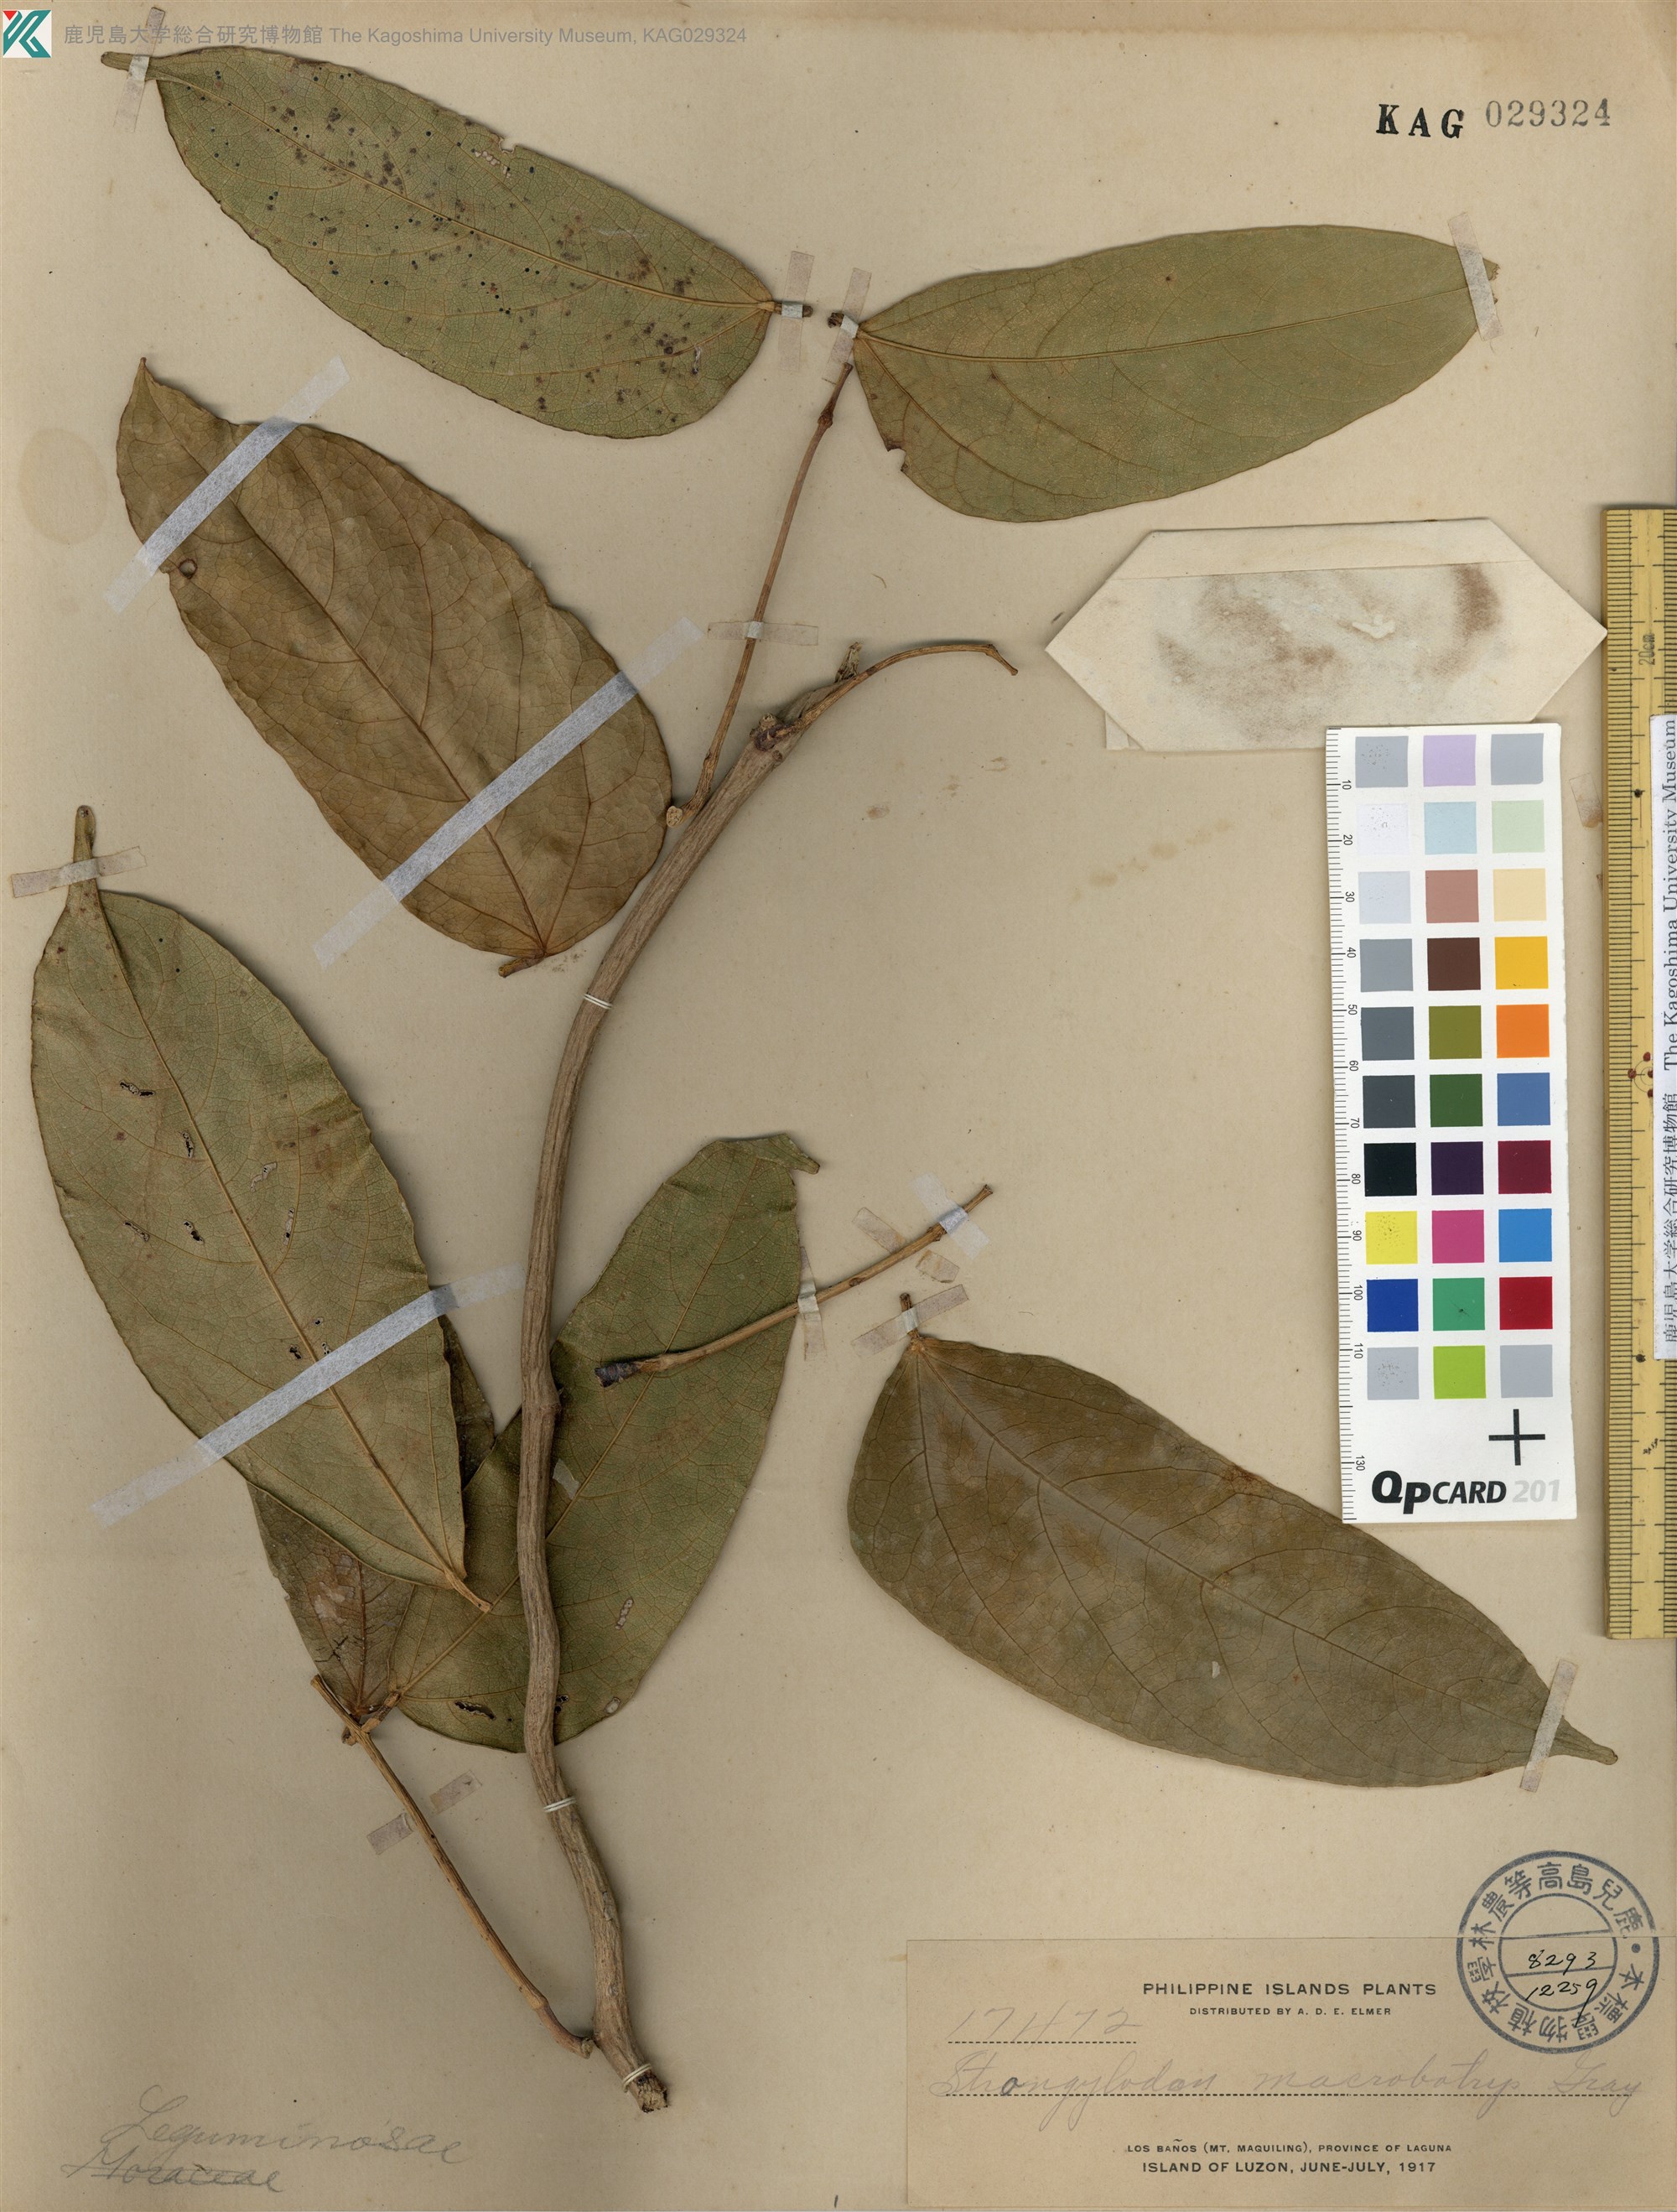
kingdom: Plantae
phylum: Tracheophyta
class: Magnoliopsida
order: Fabales
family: Fabaceae
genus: Strongylodon
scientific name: Strongylodon macrobotrys
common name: Jadevine
